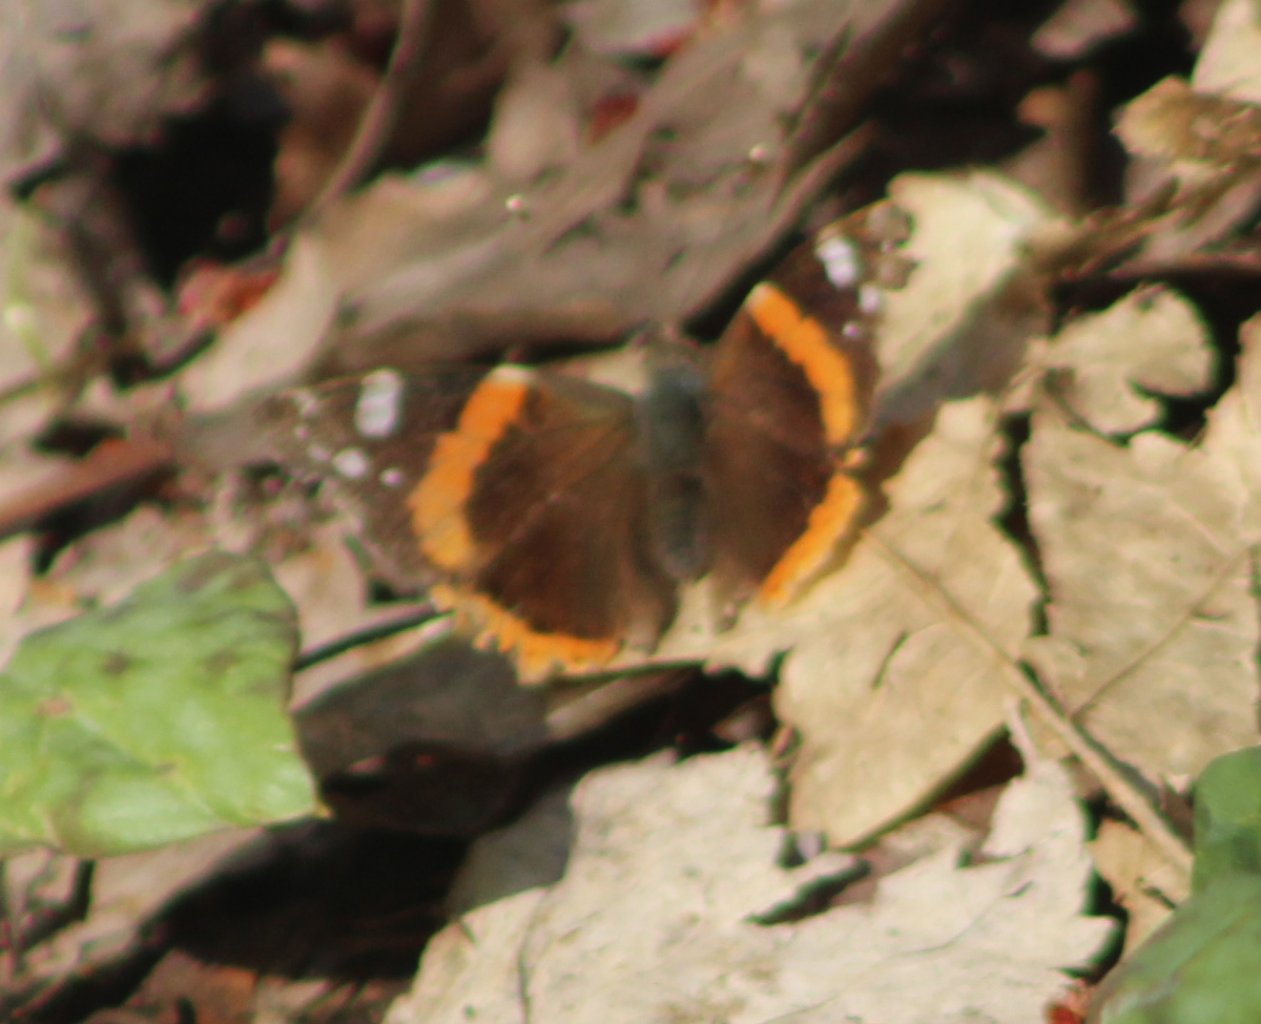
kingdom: Animalia
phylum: Arthropoda
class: Insecta
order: Lepidoptera
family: Nymphalidae
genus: Vanessa
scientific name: Vanessa atalanta
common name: Red Admiral
